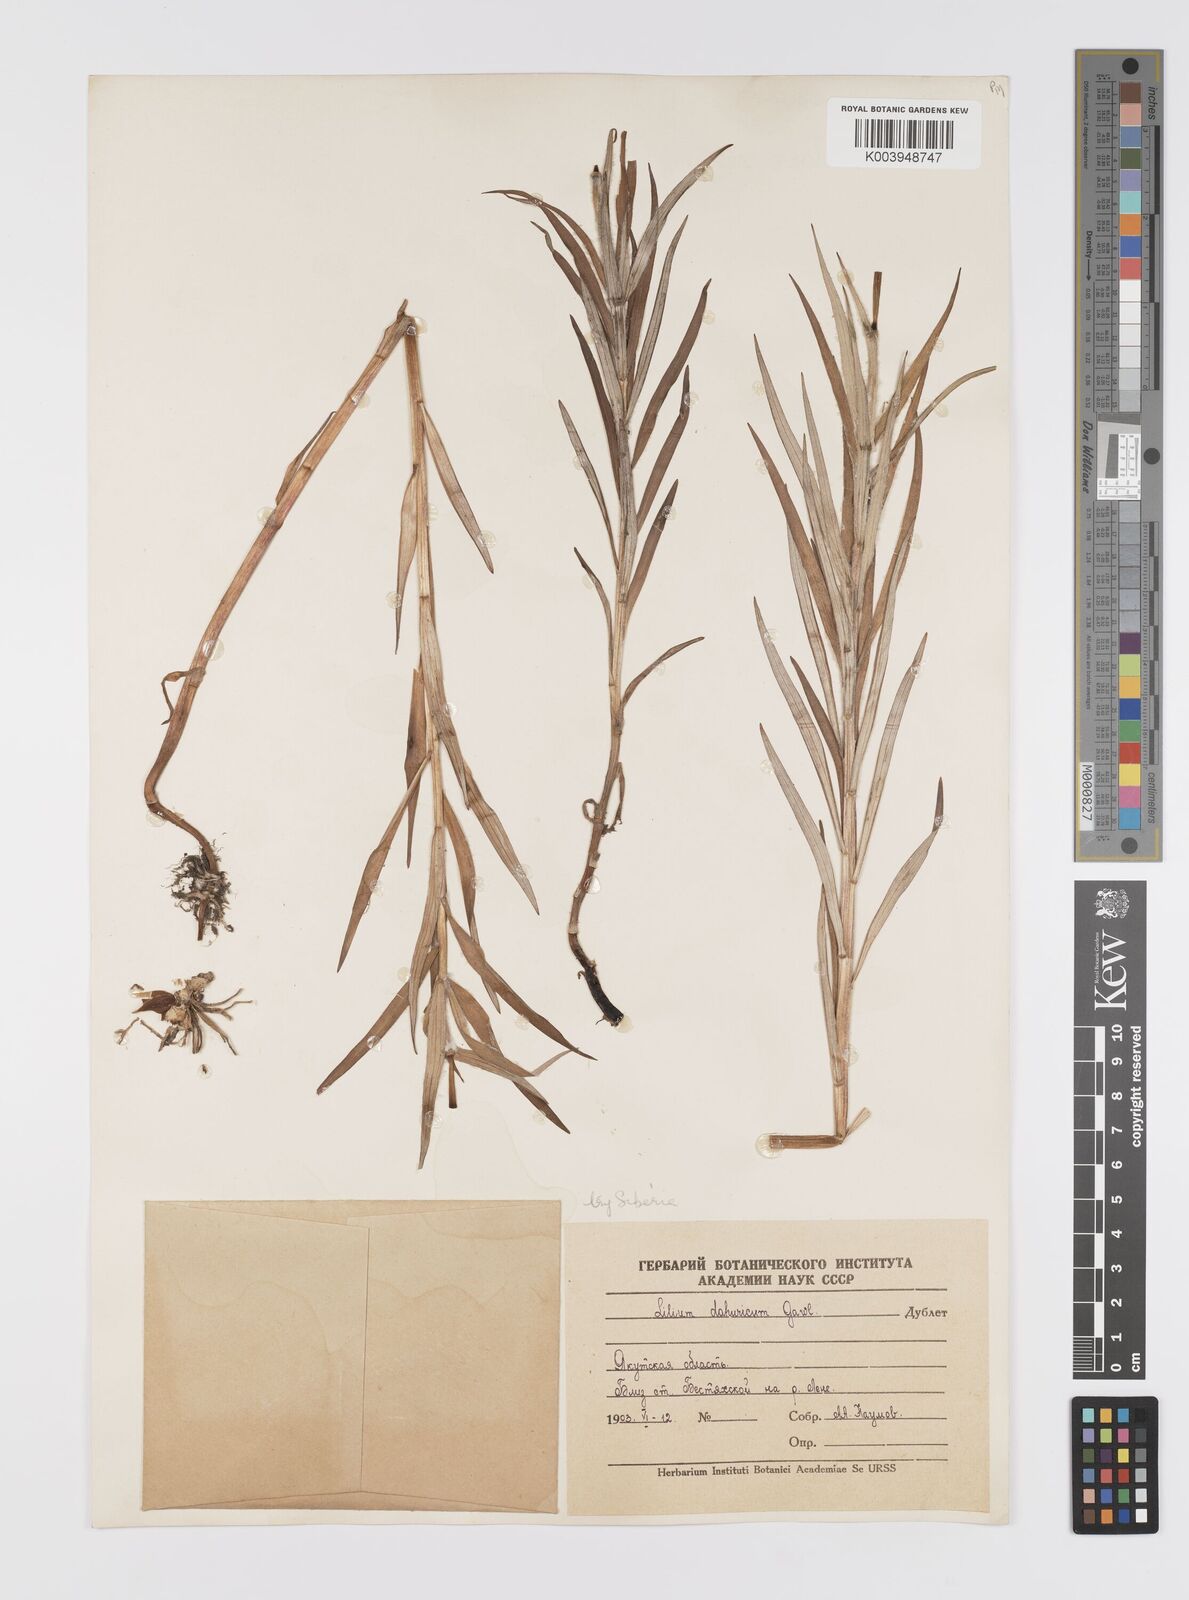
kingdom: Plantae
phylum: Tracheophyta
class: Liliopsida
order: Liliales
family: Liliaceae
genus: Lilium
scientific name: Lilium pensylvanicum
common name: Candlestick lily
